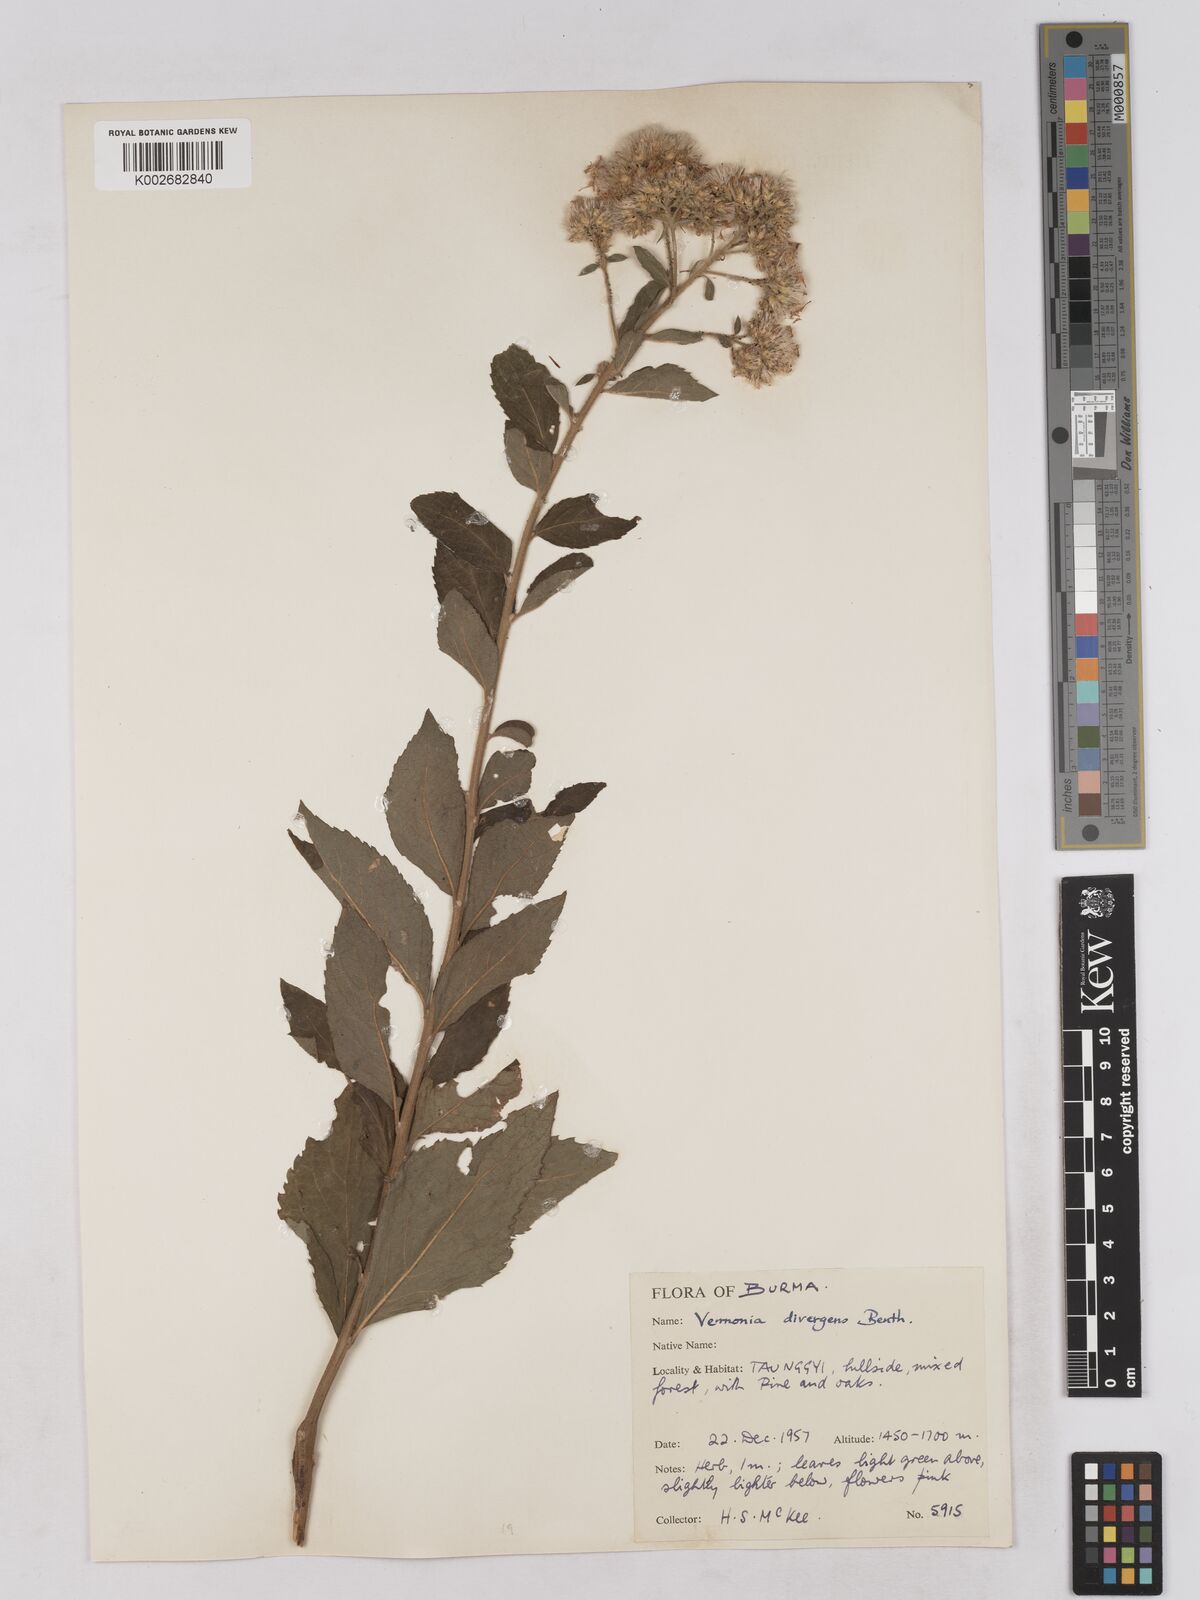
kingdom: Plantae
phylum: Tracheophyta
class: Magnoliopsida
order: Asterales
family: Asteraceae
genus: Acilepis
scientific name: Acilepis divergens
